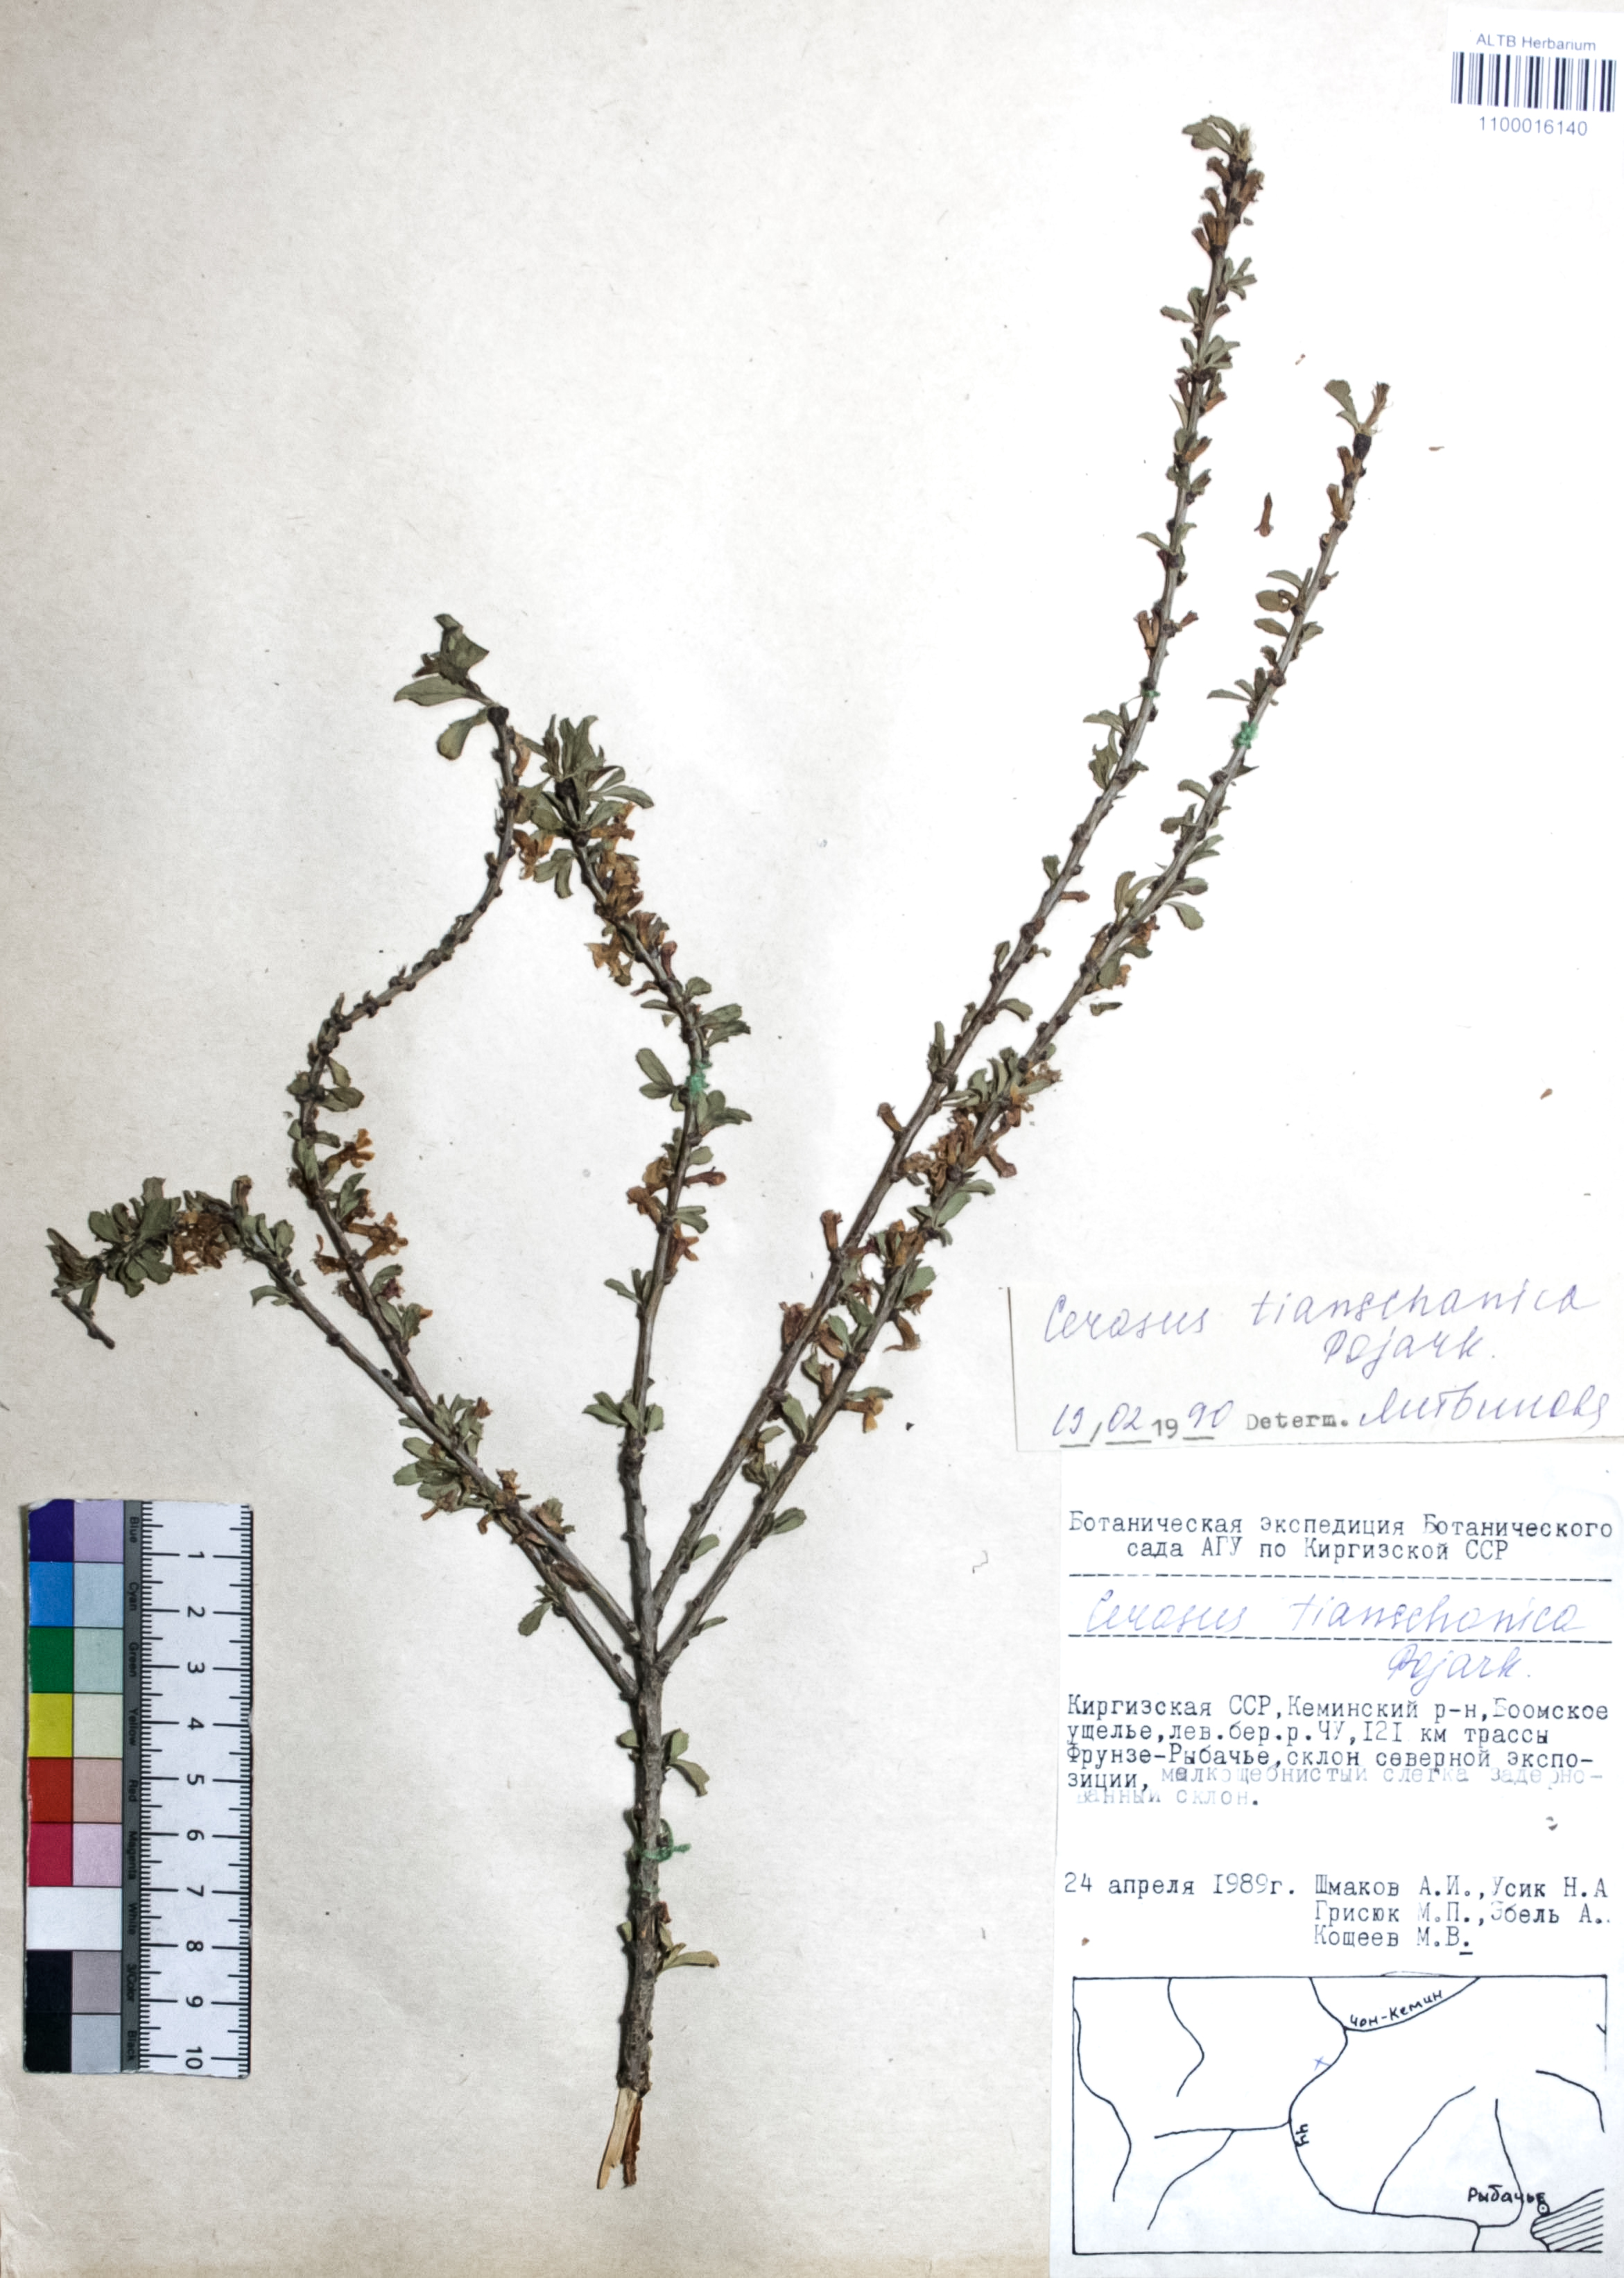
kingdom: Plantae
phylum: Tracheophyta
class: Magnoliopsida
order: Rosales
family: Rosaceae
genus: Prunus
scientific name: Prunus griffithii
